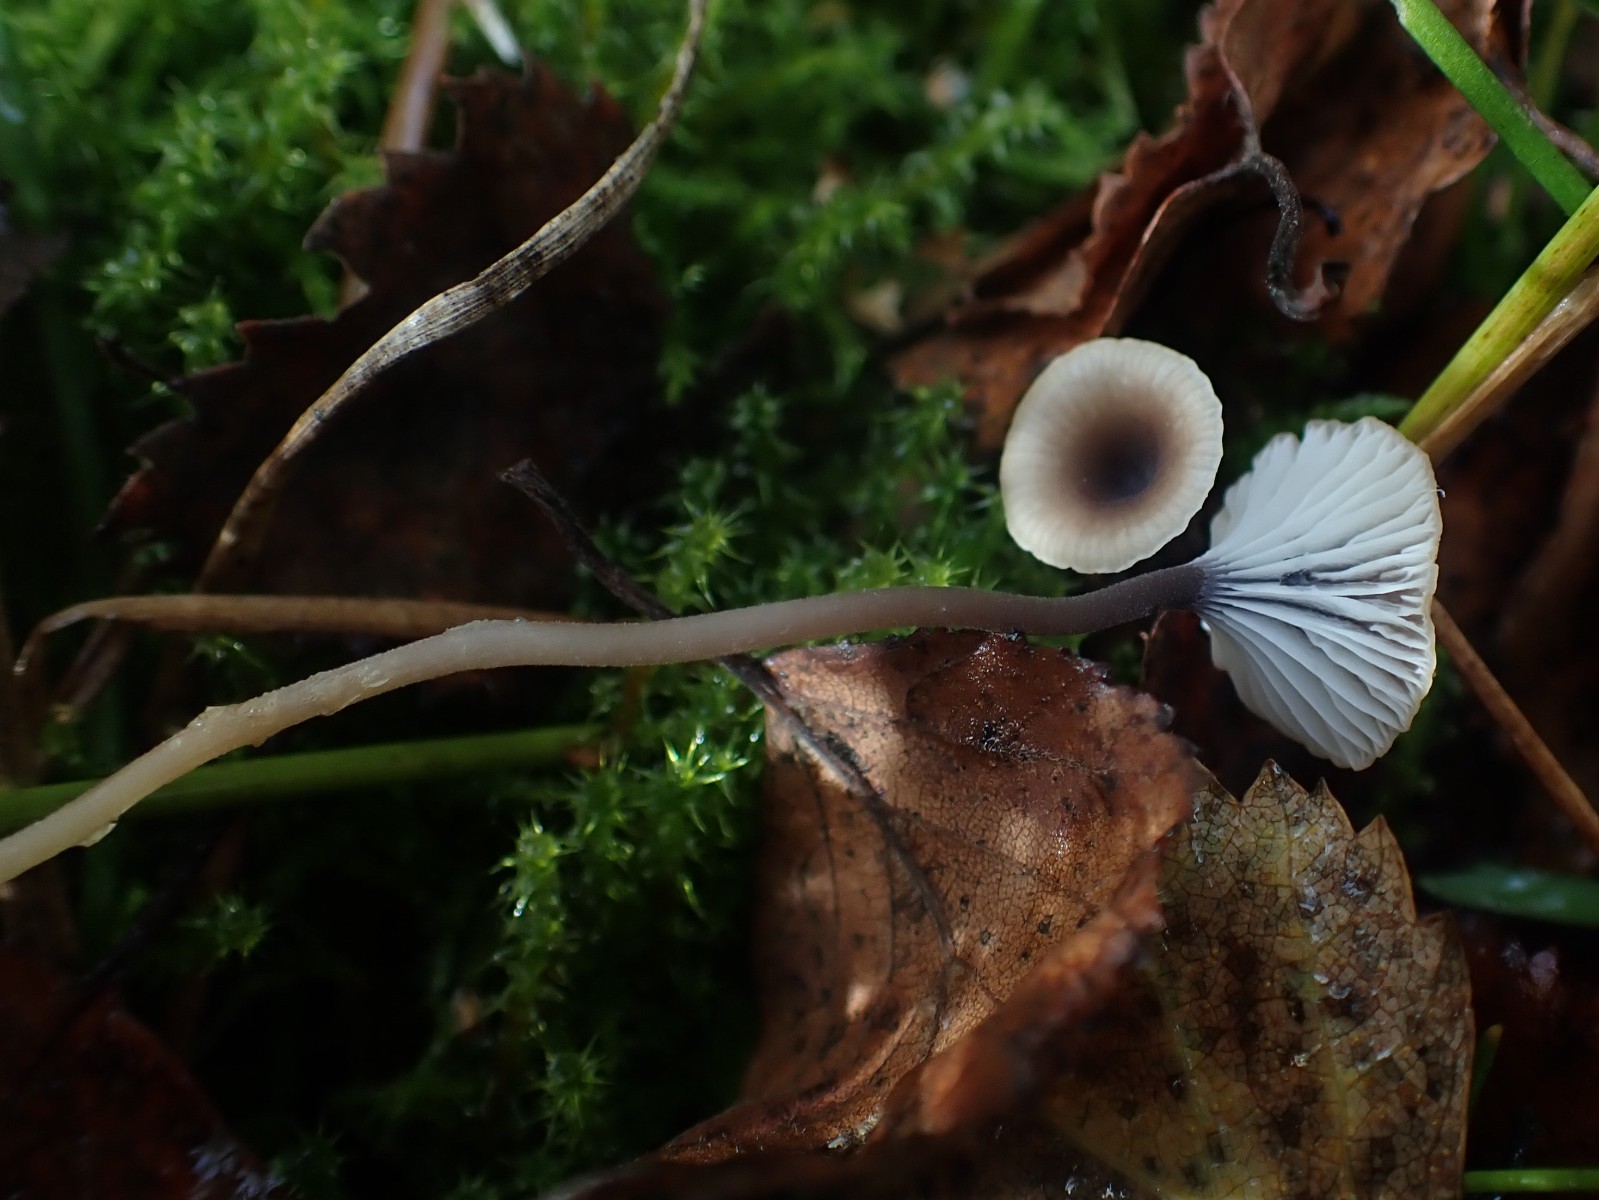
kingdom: Fungi
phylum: Basidiomycota
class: Agaricomycetes
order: Hymenochaetales
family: Rickenellaceae
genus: Rickenella
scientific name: Rickenella swartzii
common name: finstokket mosnavlehat
